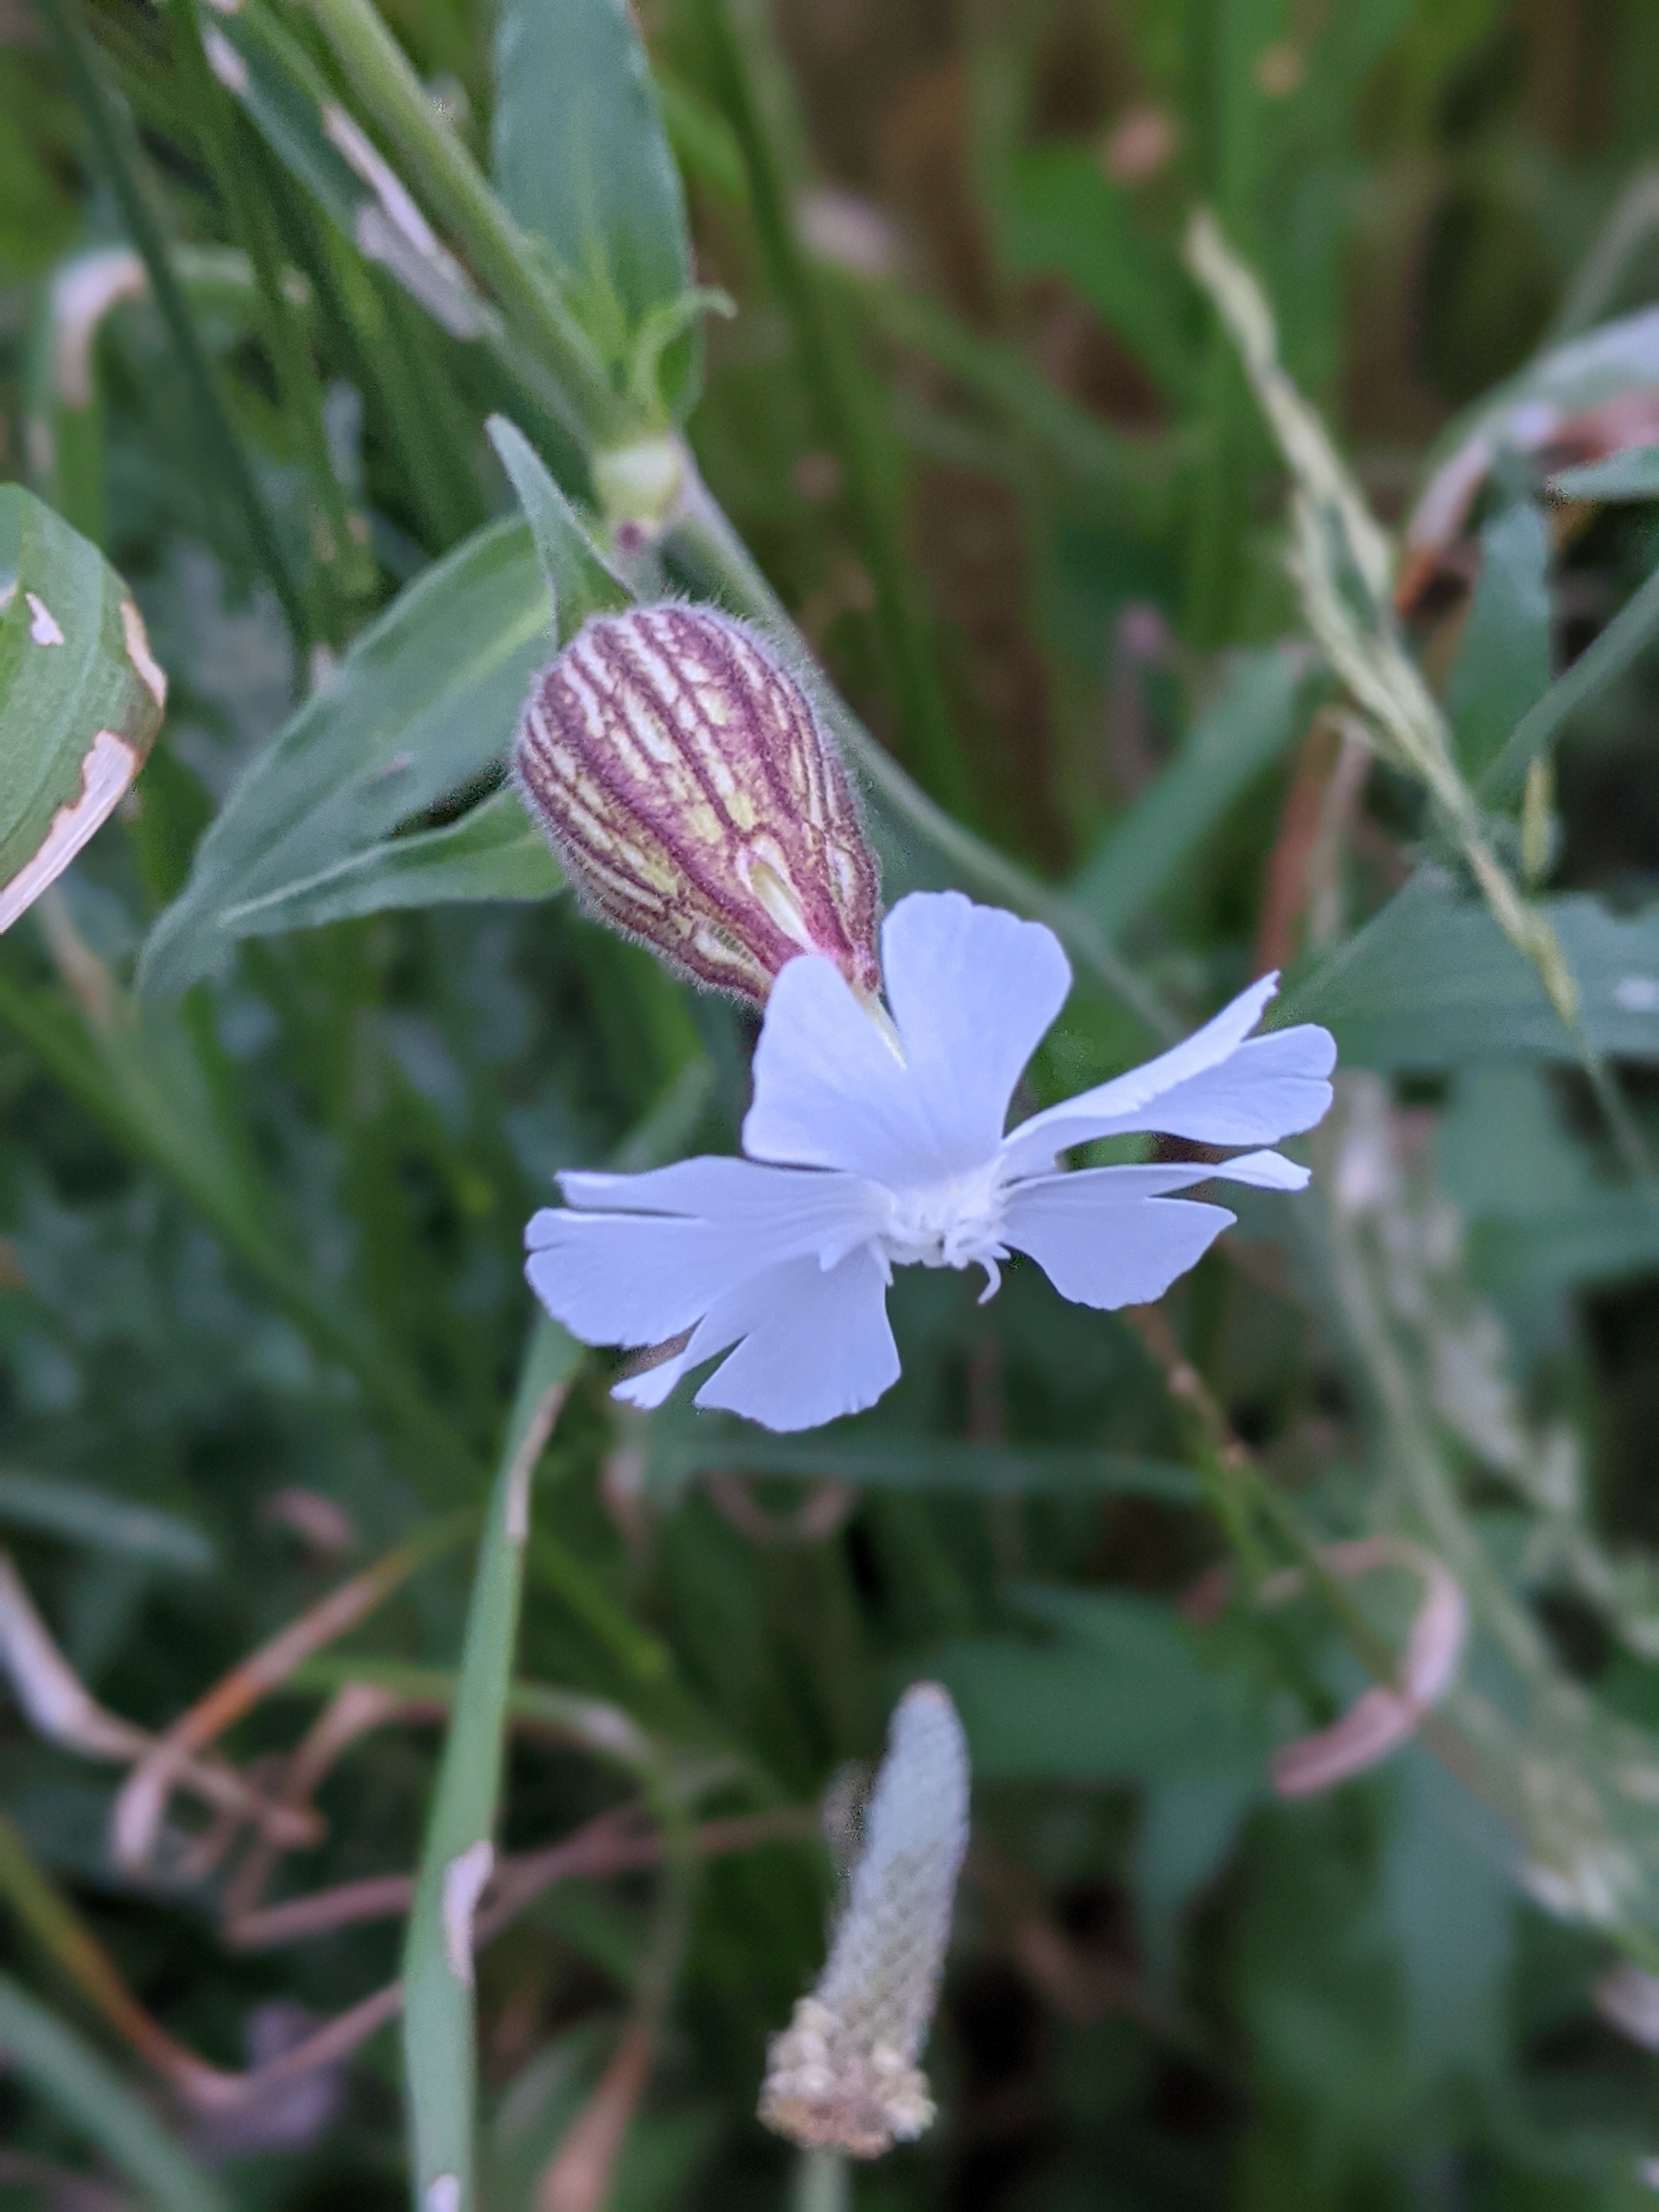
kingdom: Plantae
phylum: Tracheophyta
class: Magnoliopsida
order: Caryophyllales
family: Caryophyllaceae
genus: Silene
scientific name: Silene latifolia
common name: Aftenpragtstjerne
